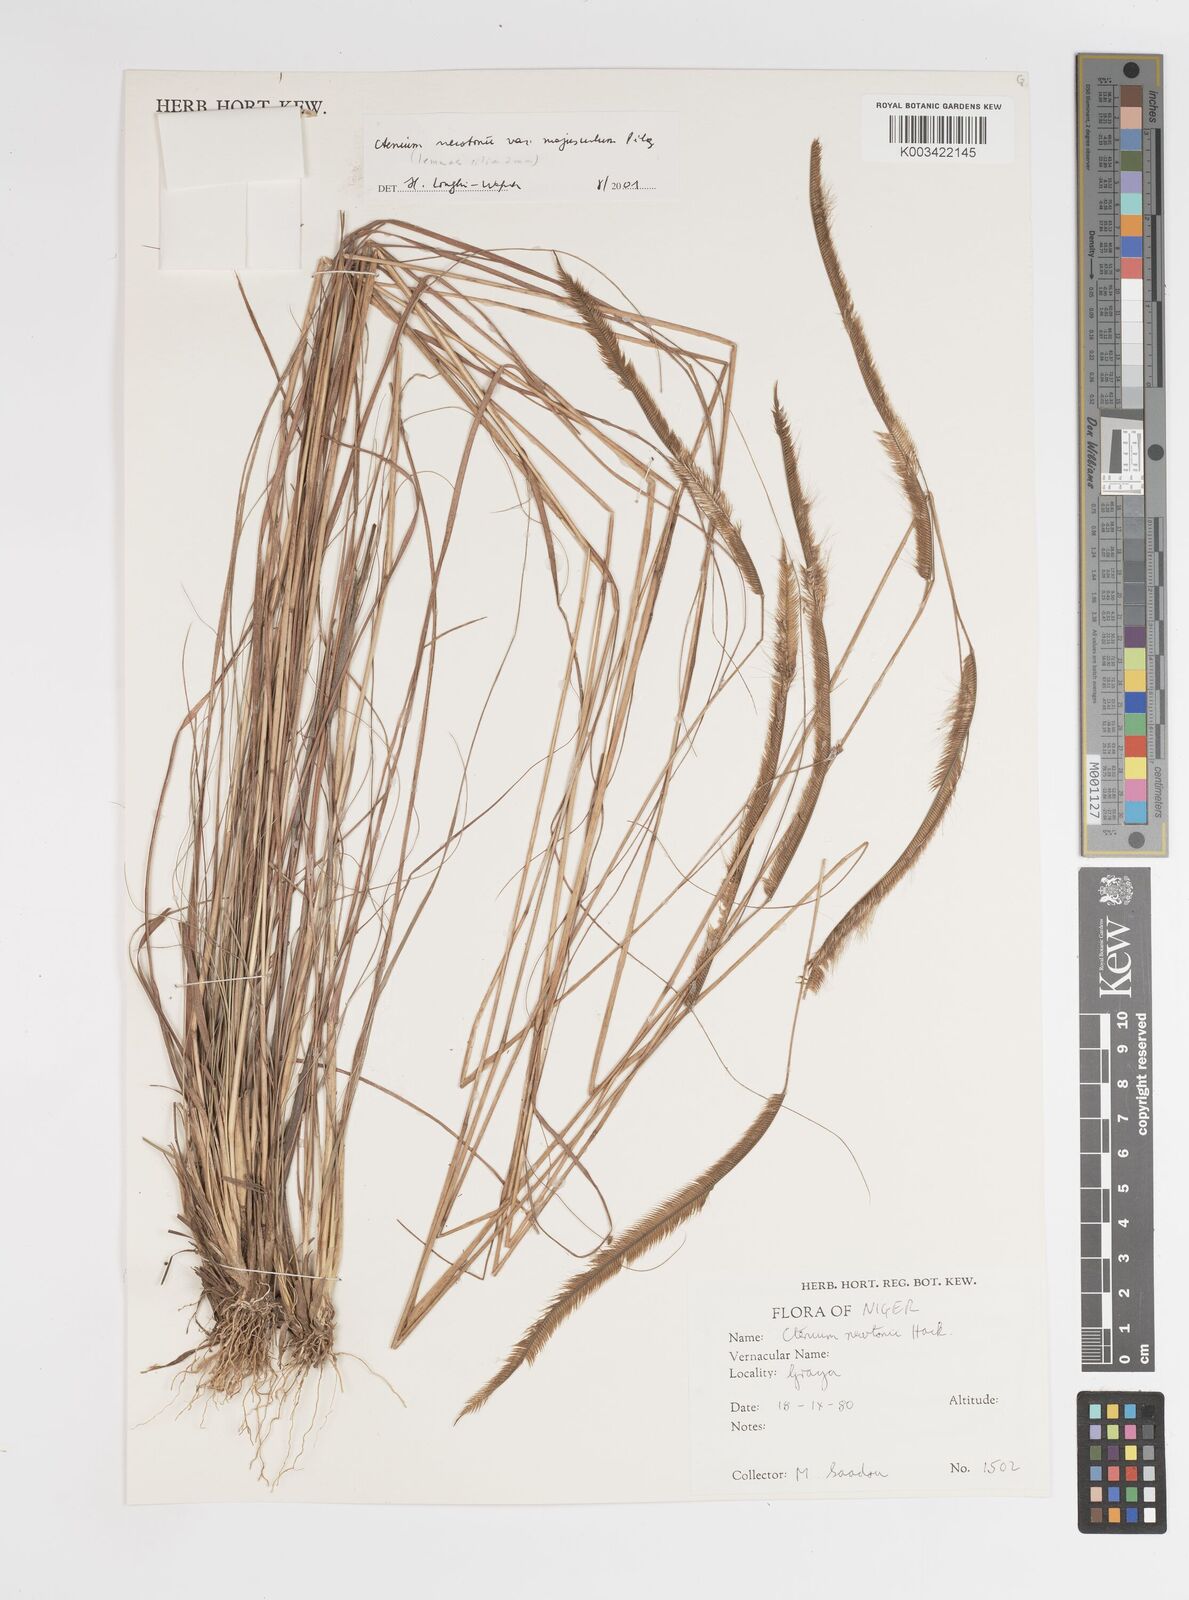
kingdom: Plantae
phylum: Tracheophyta
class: Liliopsida
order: Poales
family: Poaceae
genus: Ctenium
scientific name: Ctenium newtonii
